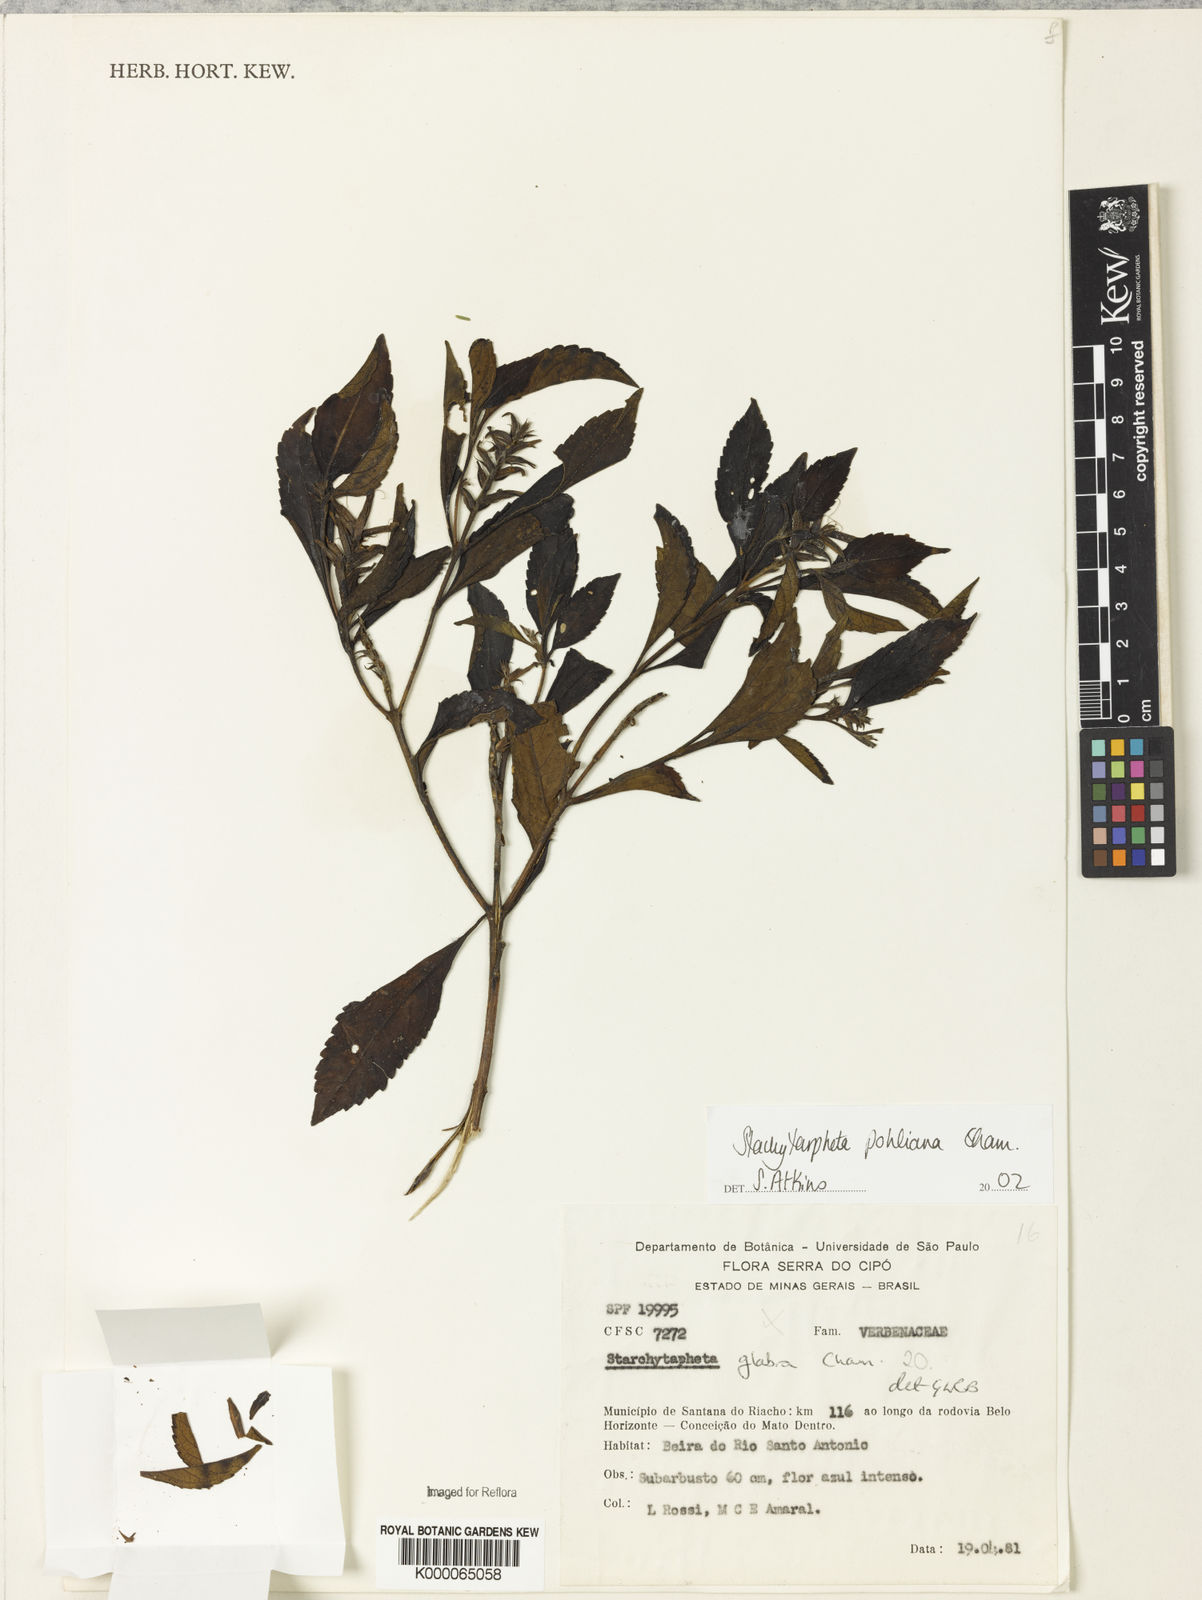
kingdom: Plantae
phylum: Tracheophyta
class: Magnoliopsida
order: Lamiales
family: Verbenaceae
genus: Stachytarpheta
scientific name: Stachytarpheta glabra
